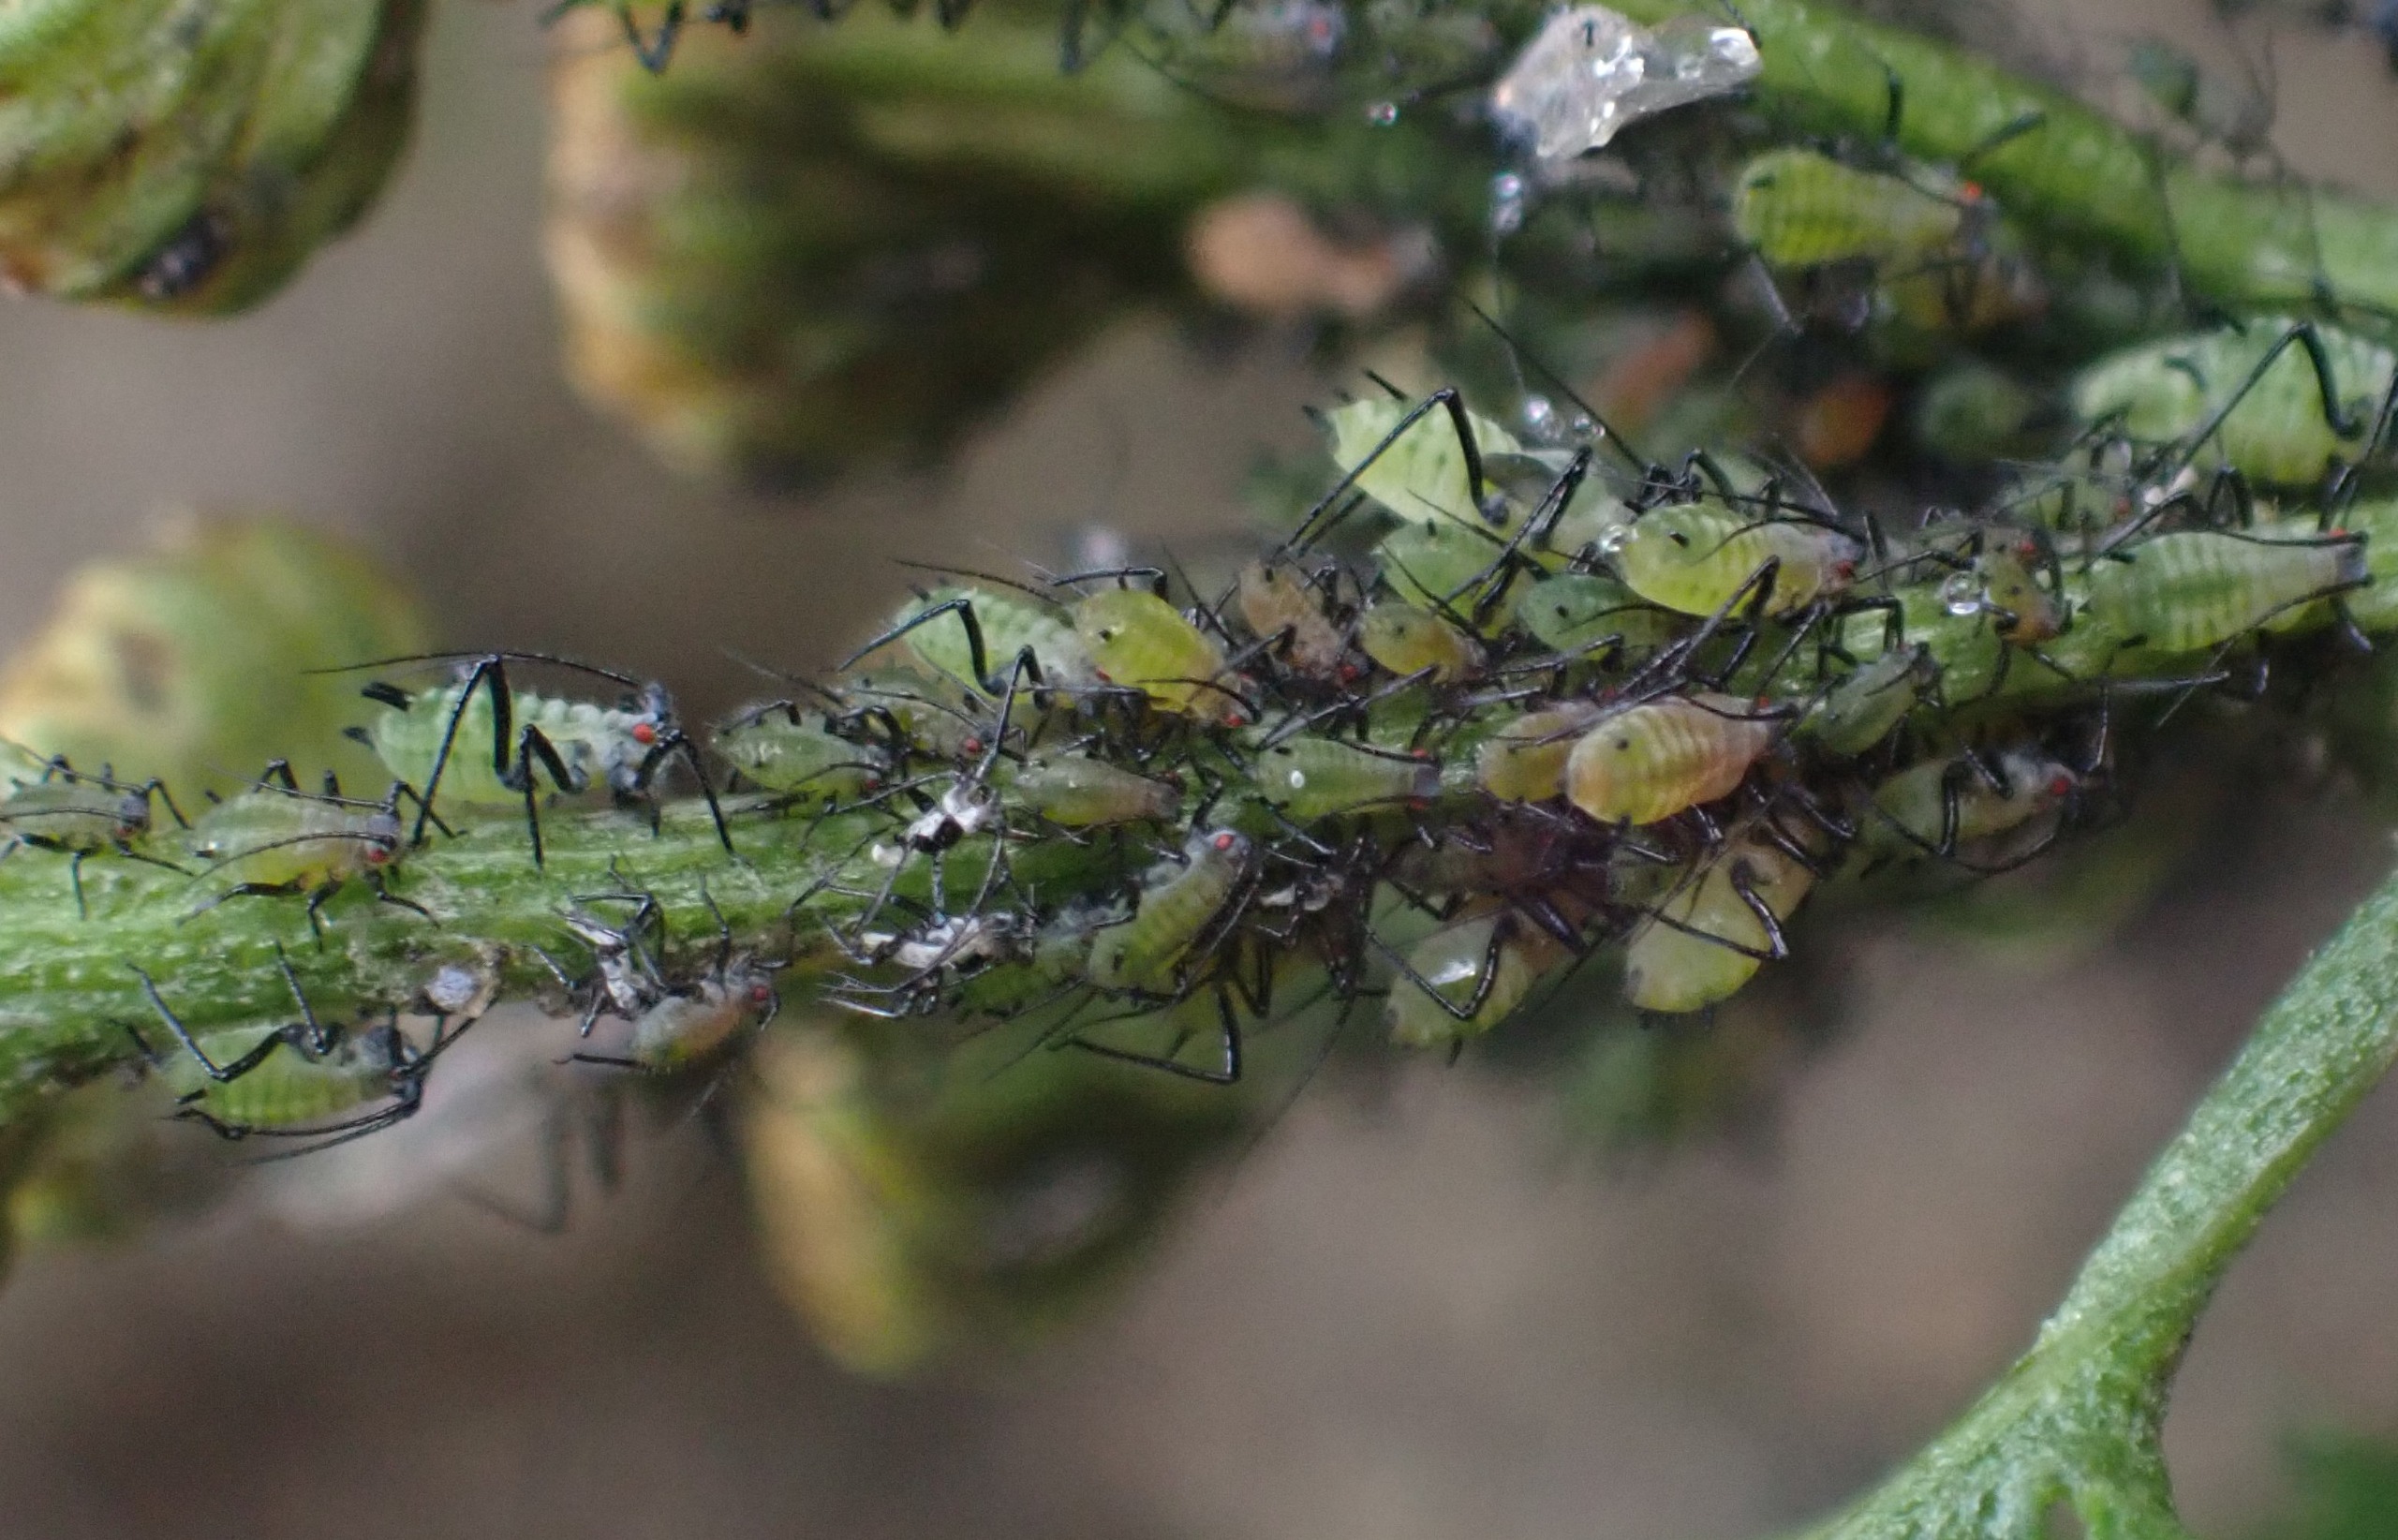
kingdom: Animalia
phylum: Arthropoda
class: Insecta
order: Hemiptera
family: Aphididae
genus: Macrosiphoniella
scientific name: Macrosiphoniella tanacetaria
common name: Rejnfanbladlus
